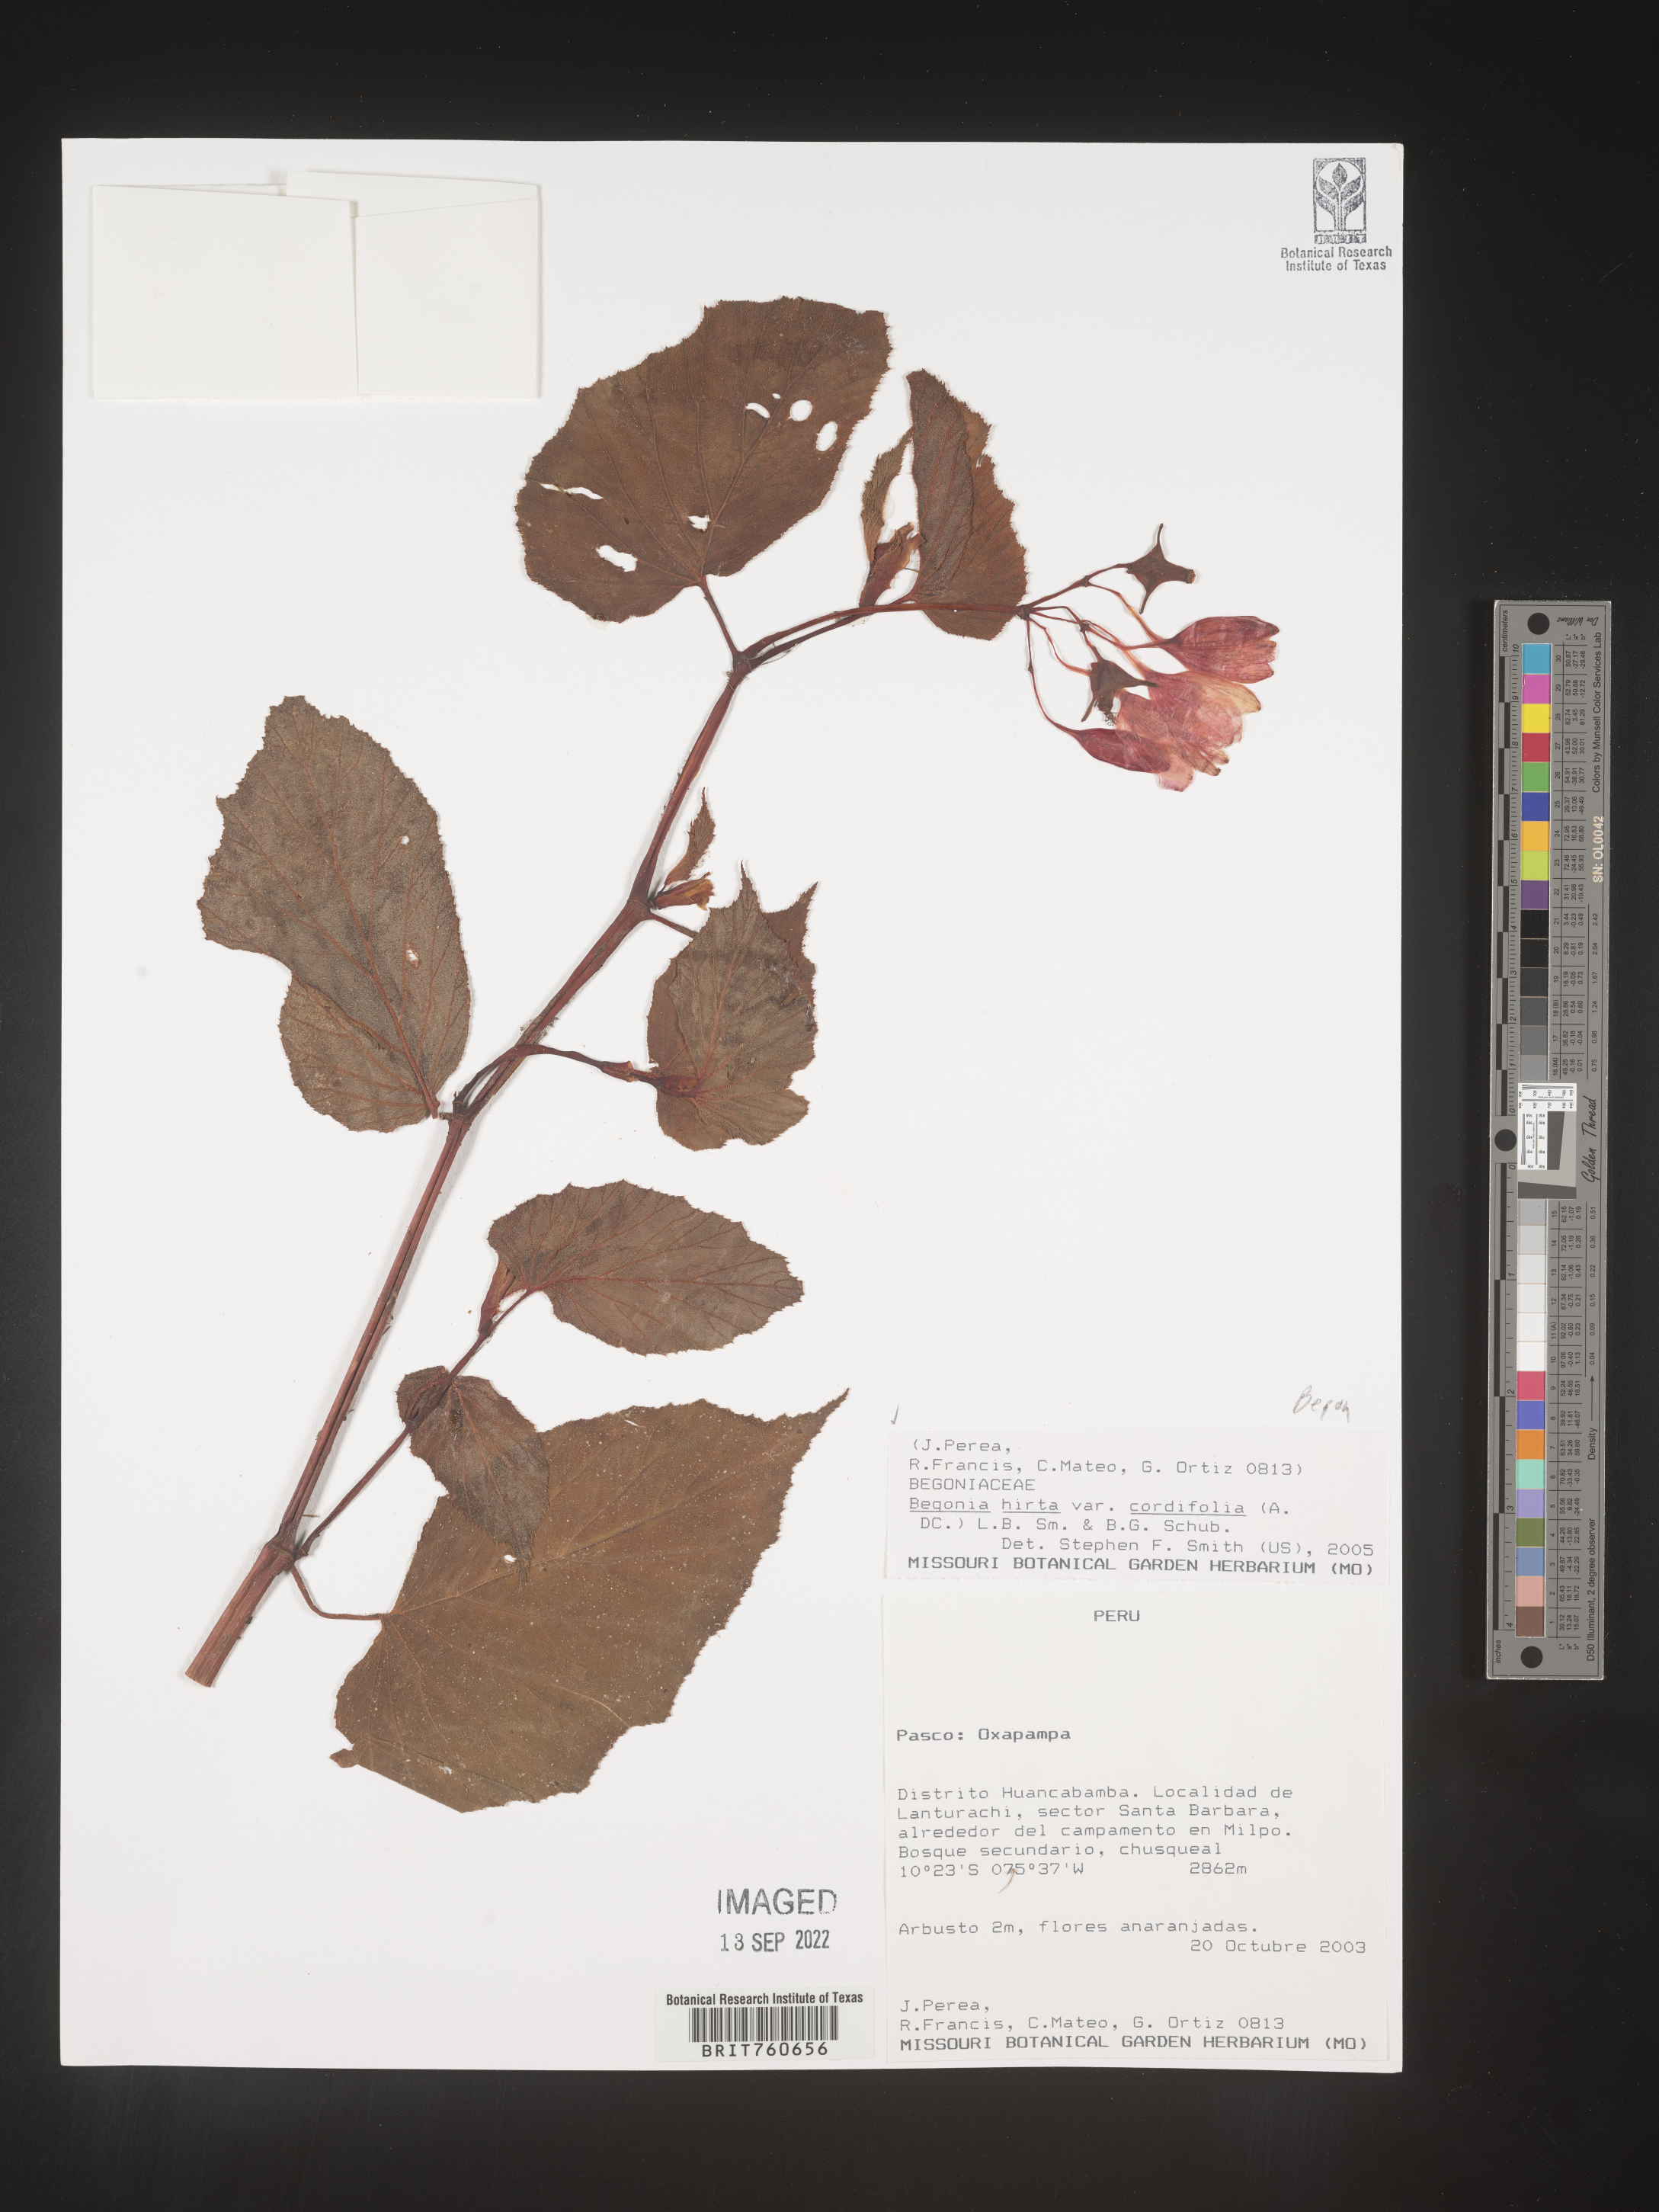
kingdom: Plantae
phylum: Tracheophyta
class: Magnoliopsida
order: Cucurbitales
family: Begoniaceae
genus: Begonia
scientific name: Begonia
